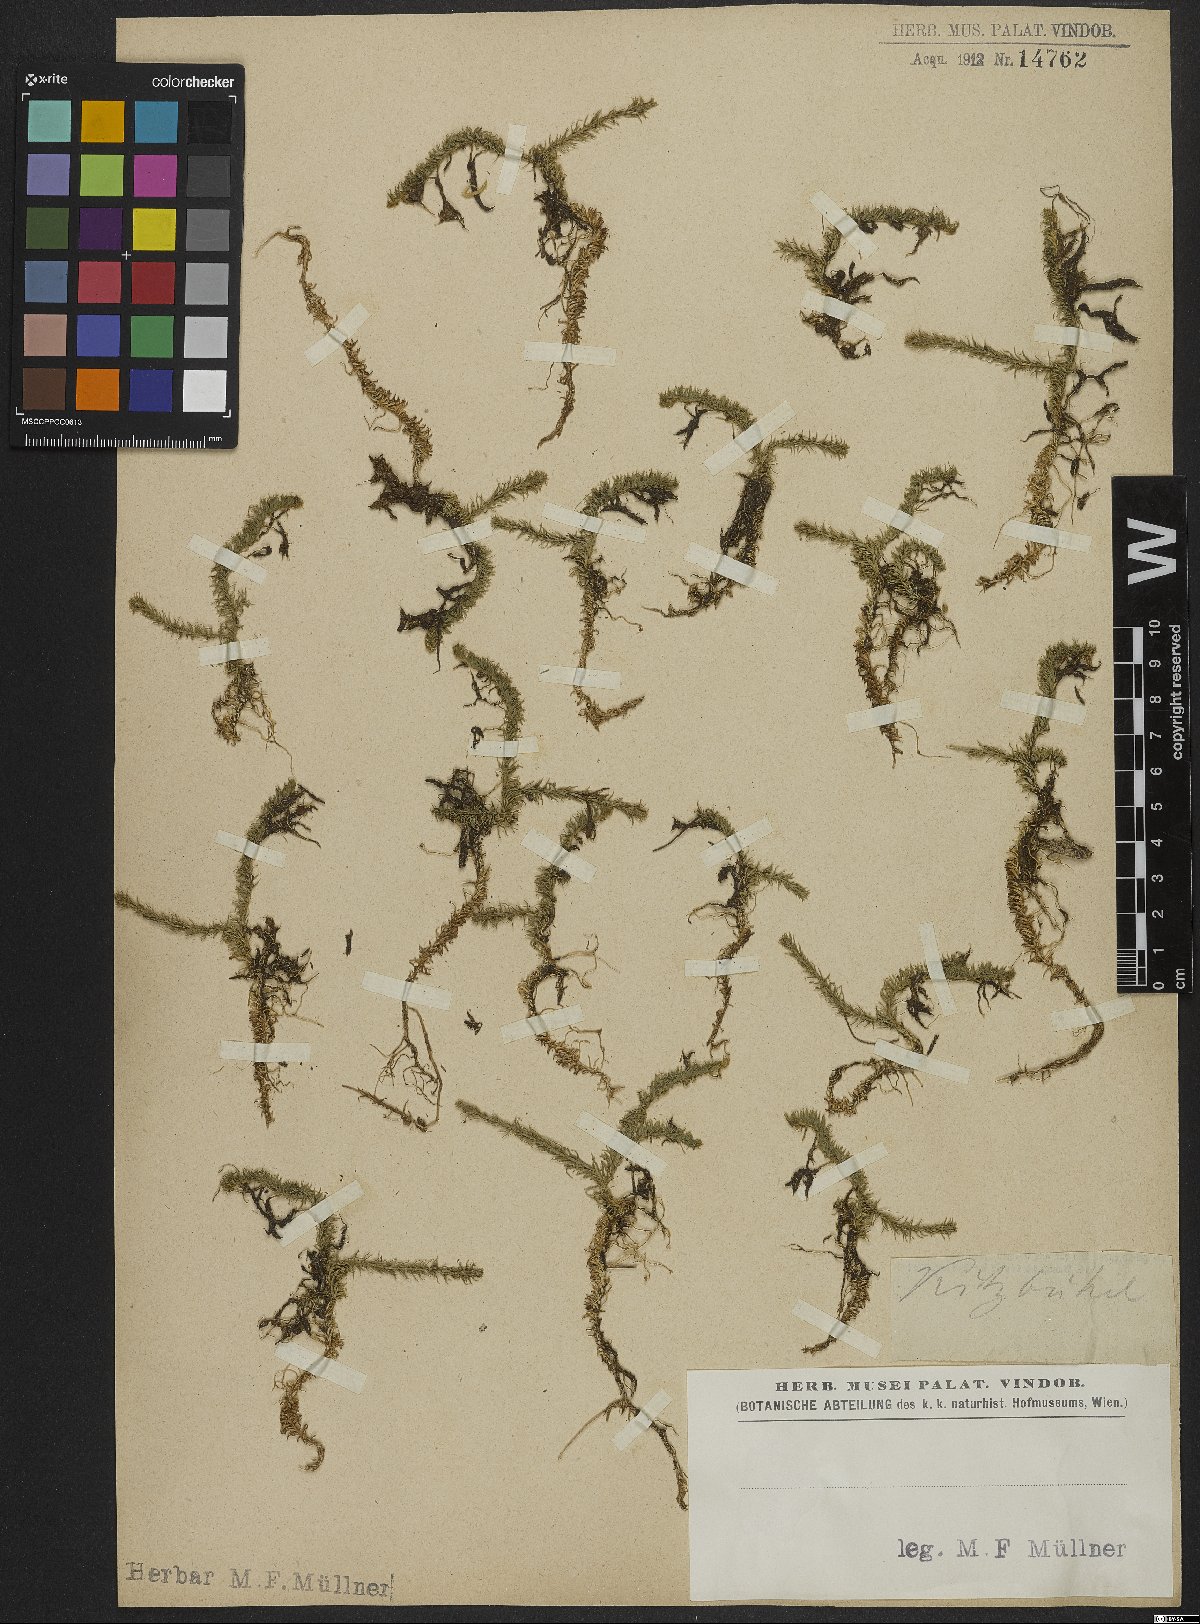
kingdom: Plantae
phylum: Tracheophyta
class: Lycopodiopsida
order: Lycopodiales
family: Lycopodiaceae
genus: Lycopodiella
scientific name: Lycopodiella inundata
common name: Marsh clubmoss
